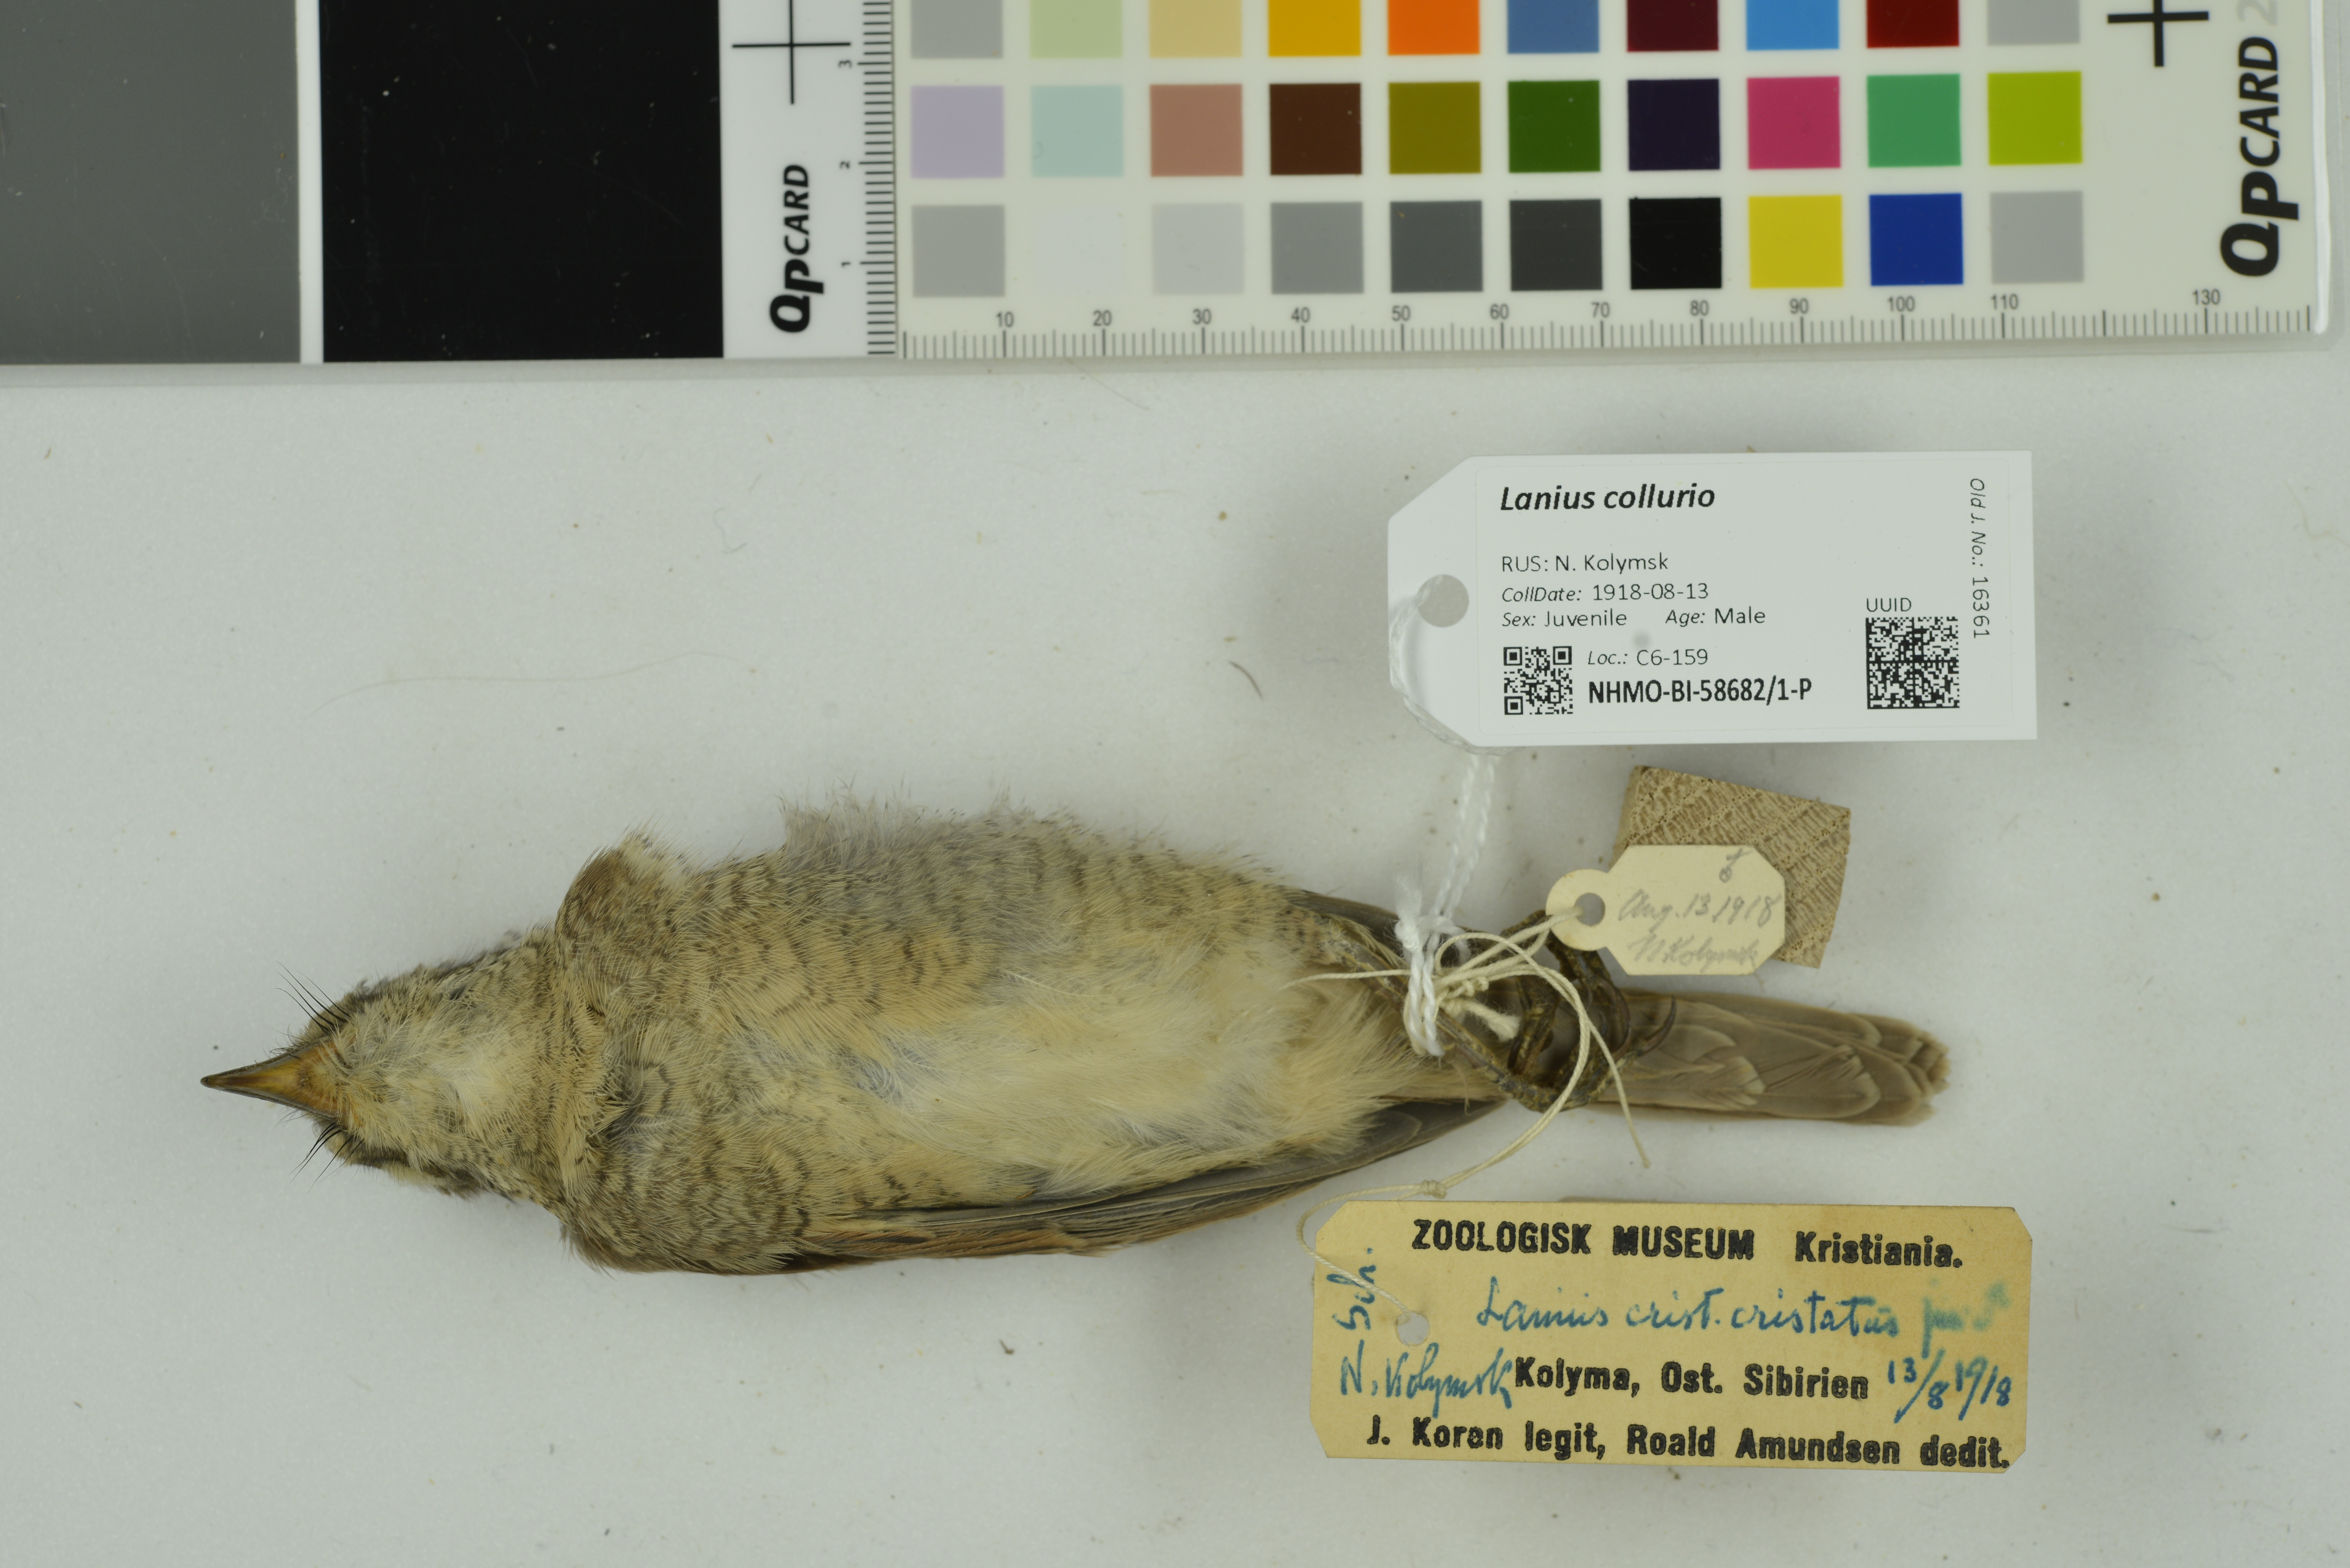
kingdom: Animalia
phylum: Chordata
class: Aves
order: Passeriformes
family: Laniidae
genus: Lanius
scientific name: Lanius collurio
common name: Red-backed shrike
